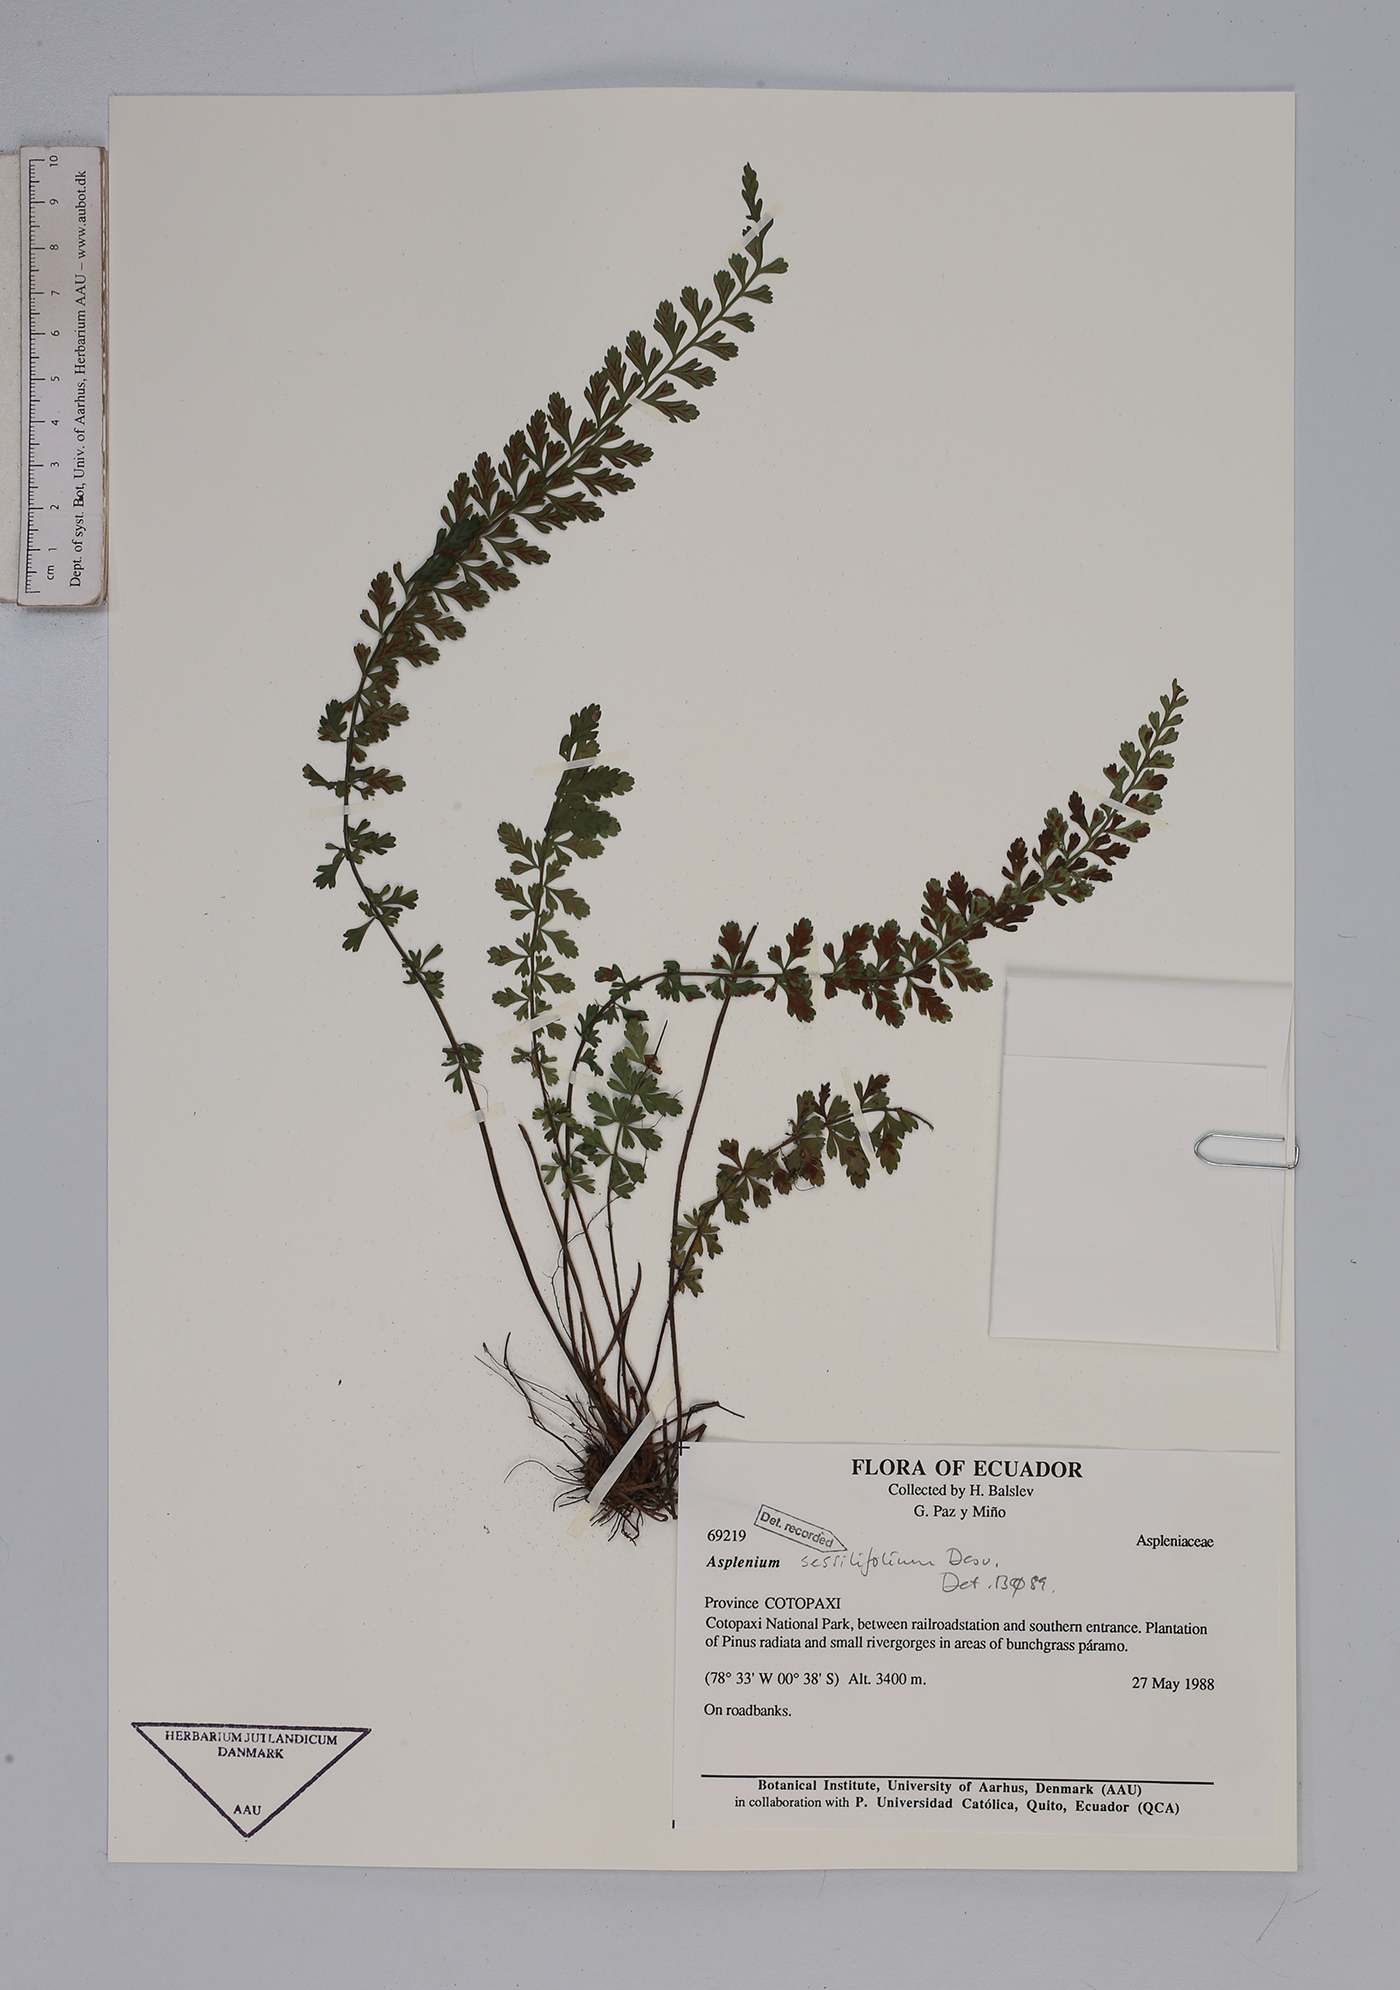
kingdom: Plantae
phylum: Tracheophyta
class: Polypodiopsida
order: Polypodiales
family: Aspleniaceae
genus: Asplenium
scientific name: Asplenium sessilifolium
